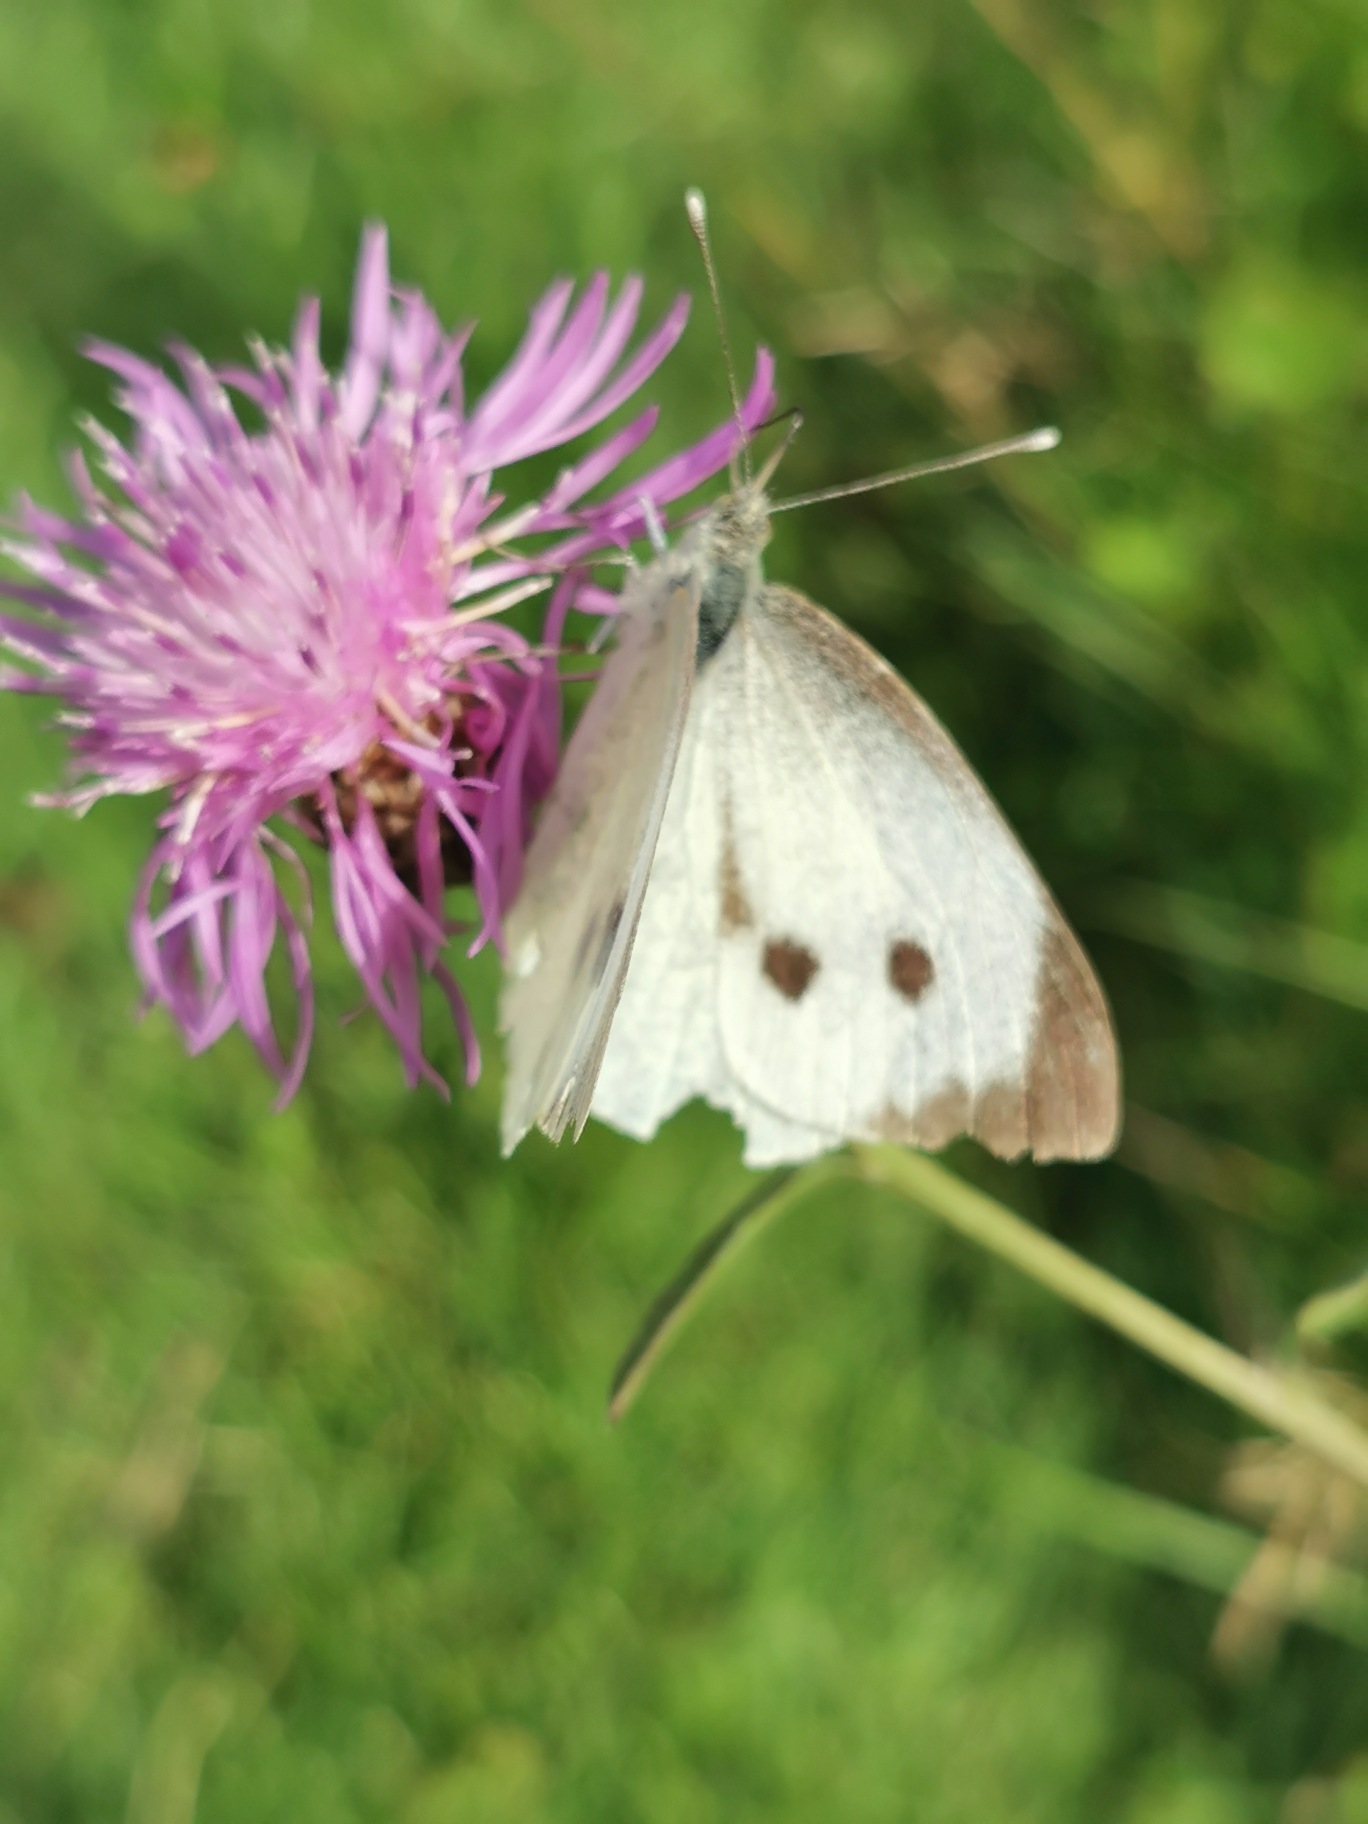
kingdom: Animalia
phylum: Arthropoda
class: Insecta
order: Lepidoptera
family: Pieridae
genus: Pieris
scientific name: Pieris brassicae
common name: Stor kålsommerfugl
